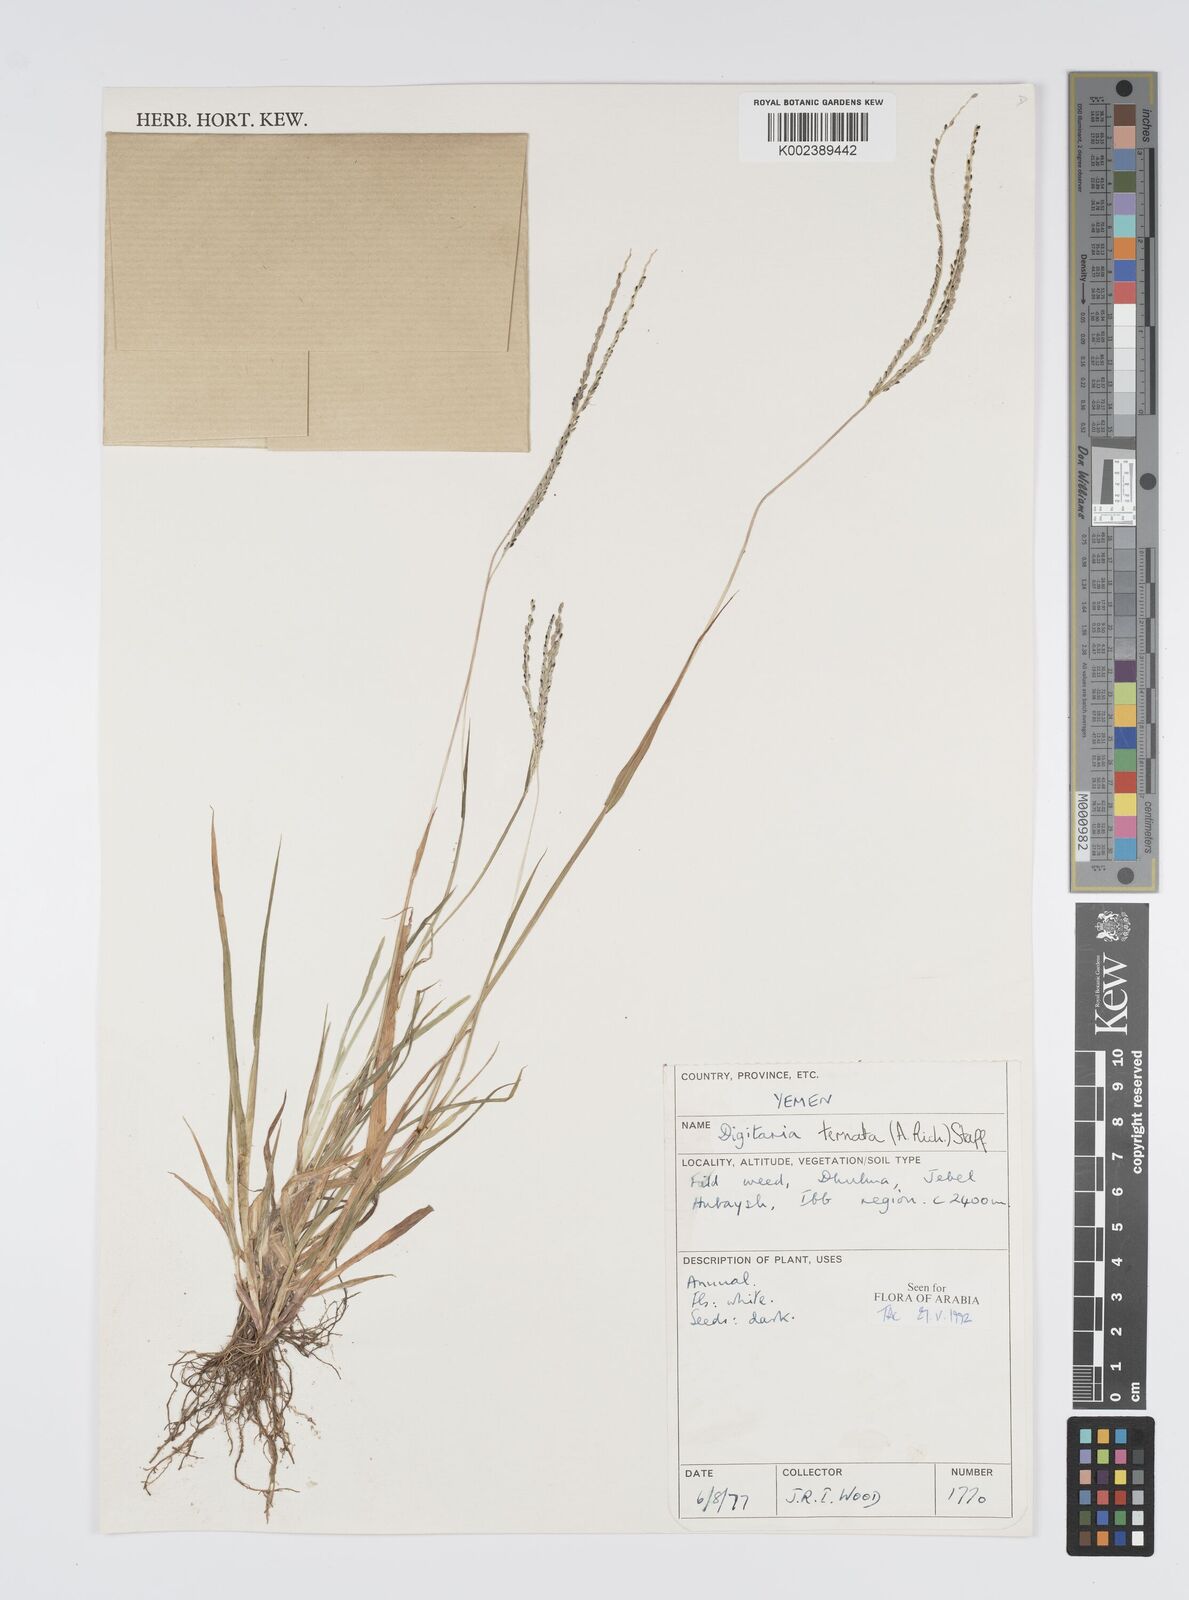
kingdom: Plantae
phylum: Tracheophyta
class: Liliopsida
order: Poales
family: Poaceae
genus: Digitaria
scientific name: Digitaria ternata
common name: Blackseed crabgrass
